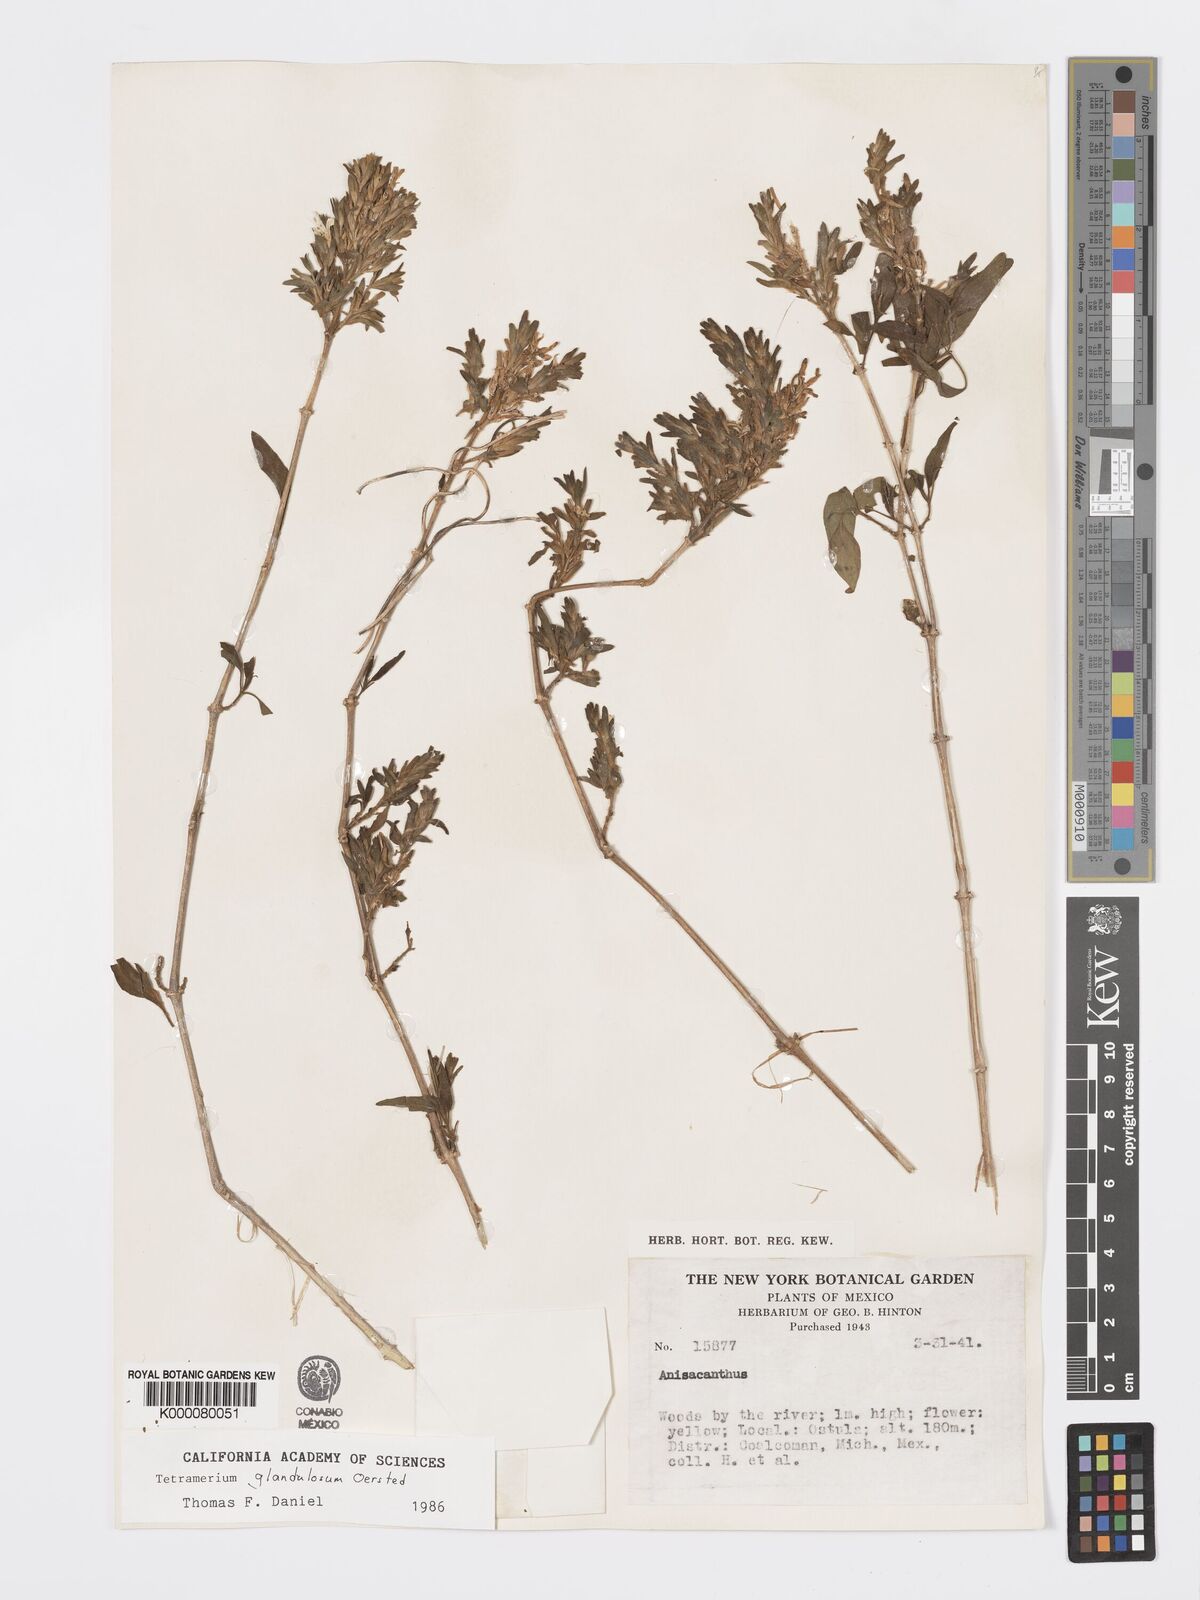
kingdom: Plantae
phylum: Tracheophyta
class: Magnoliopsida
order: Lamiales
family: Acanthaceae
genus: Tetramerium
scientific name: Tetramerium glandulosum
